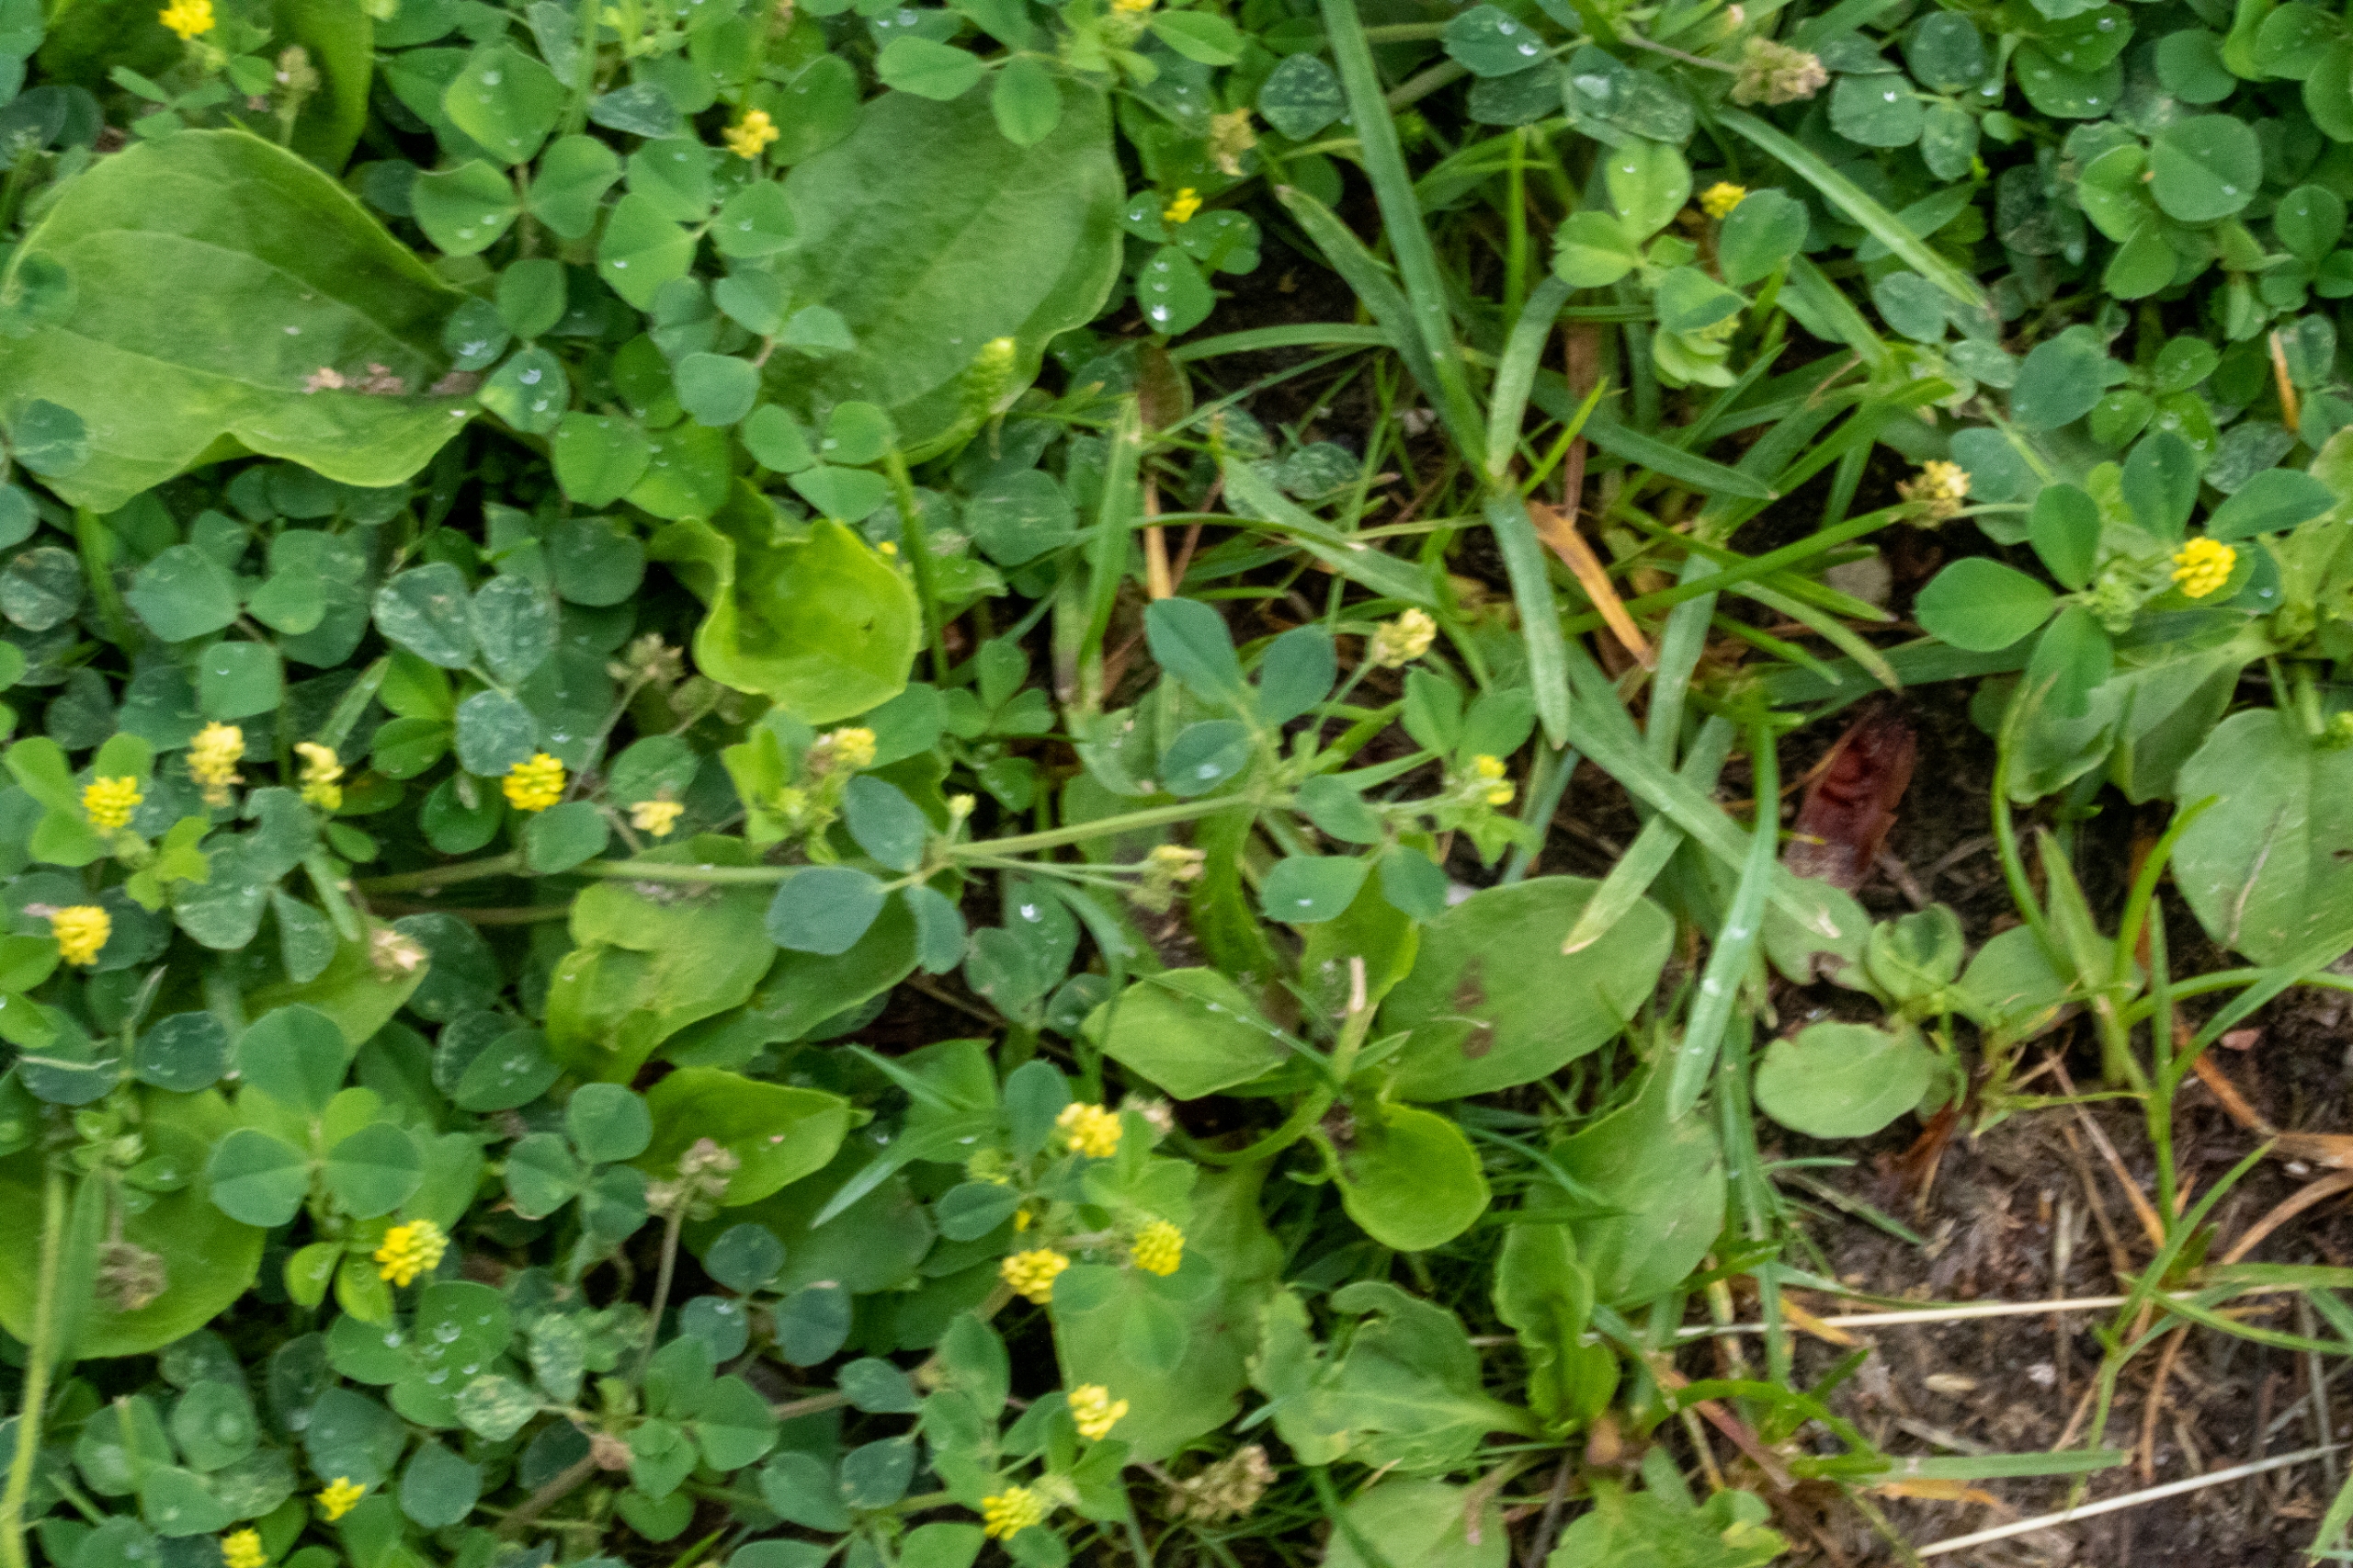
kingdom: Plantae
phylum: Tracheophyta
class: Magnoliopsida
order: Fabales
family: Fabaceae
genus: Medicago
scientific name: Medicago lupulina
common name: Humle-sneglebælg
